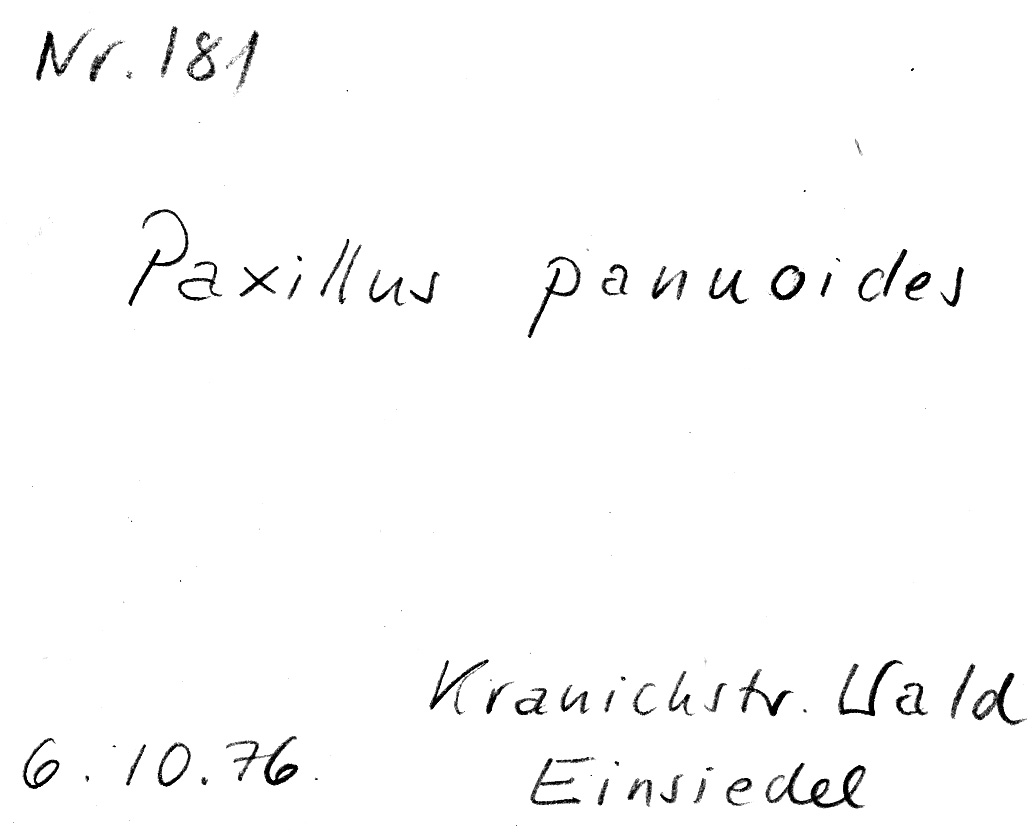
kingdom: Fungi
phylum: Basidiomycota
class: Agaricomycetes
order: Boletales
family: Tapinellaceae
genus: Tapinella
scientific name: Tapinella panuoides
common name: Oyster rollrim
